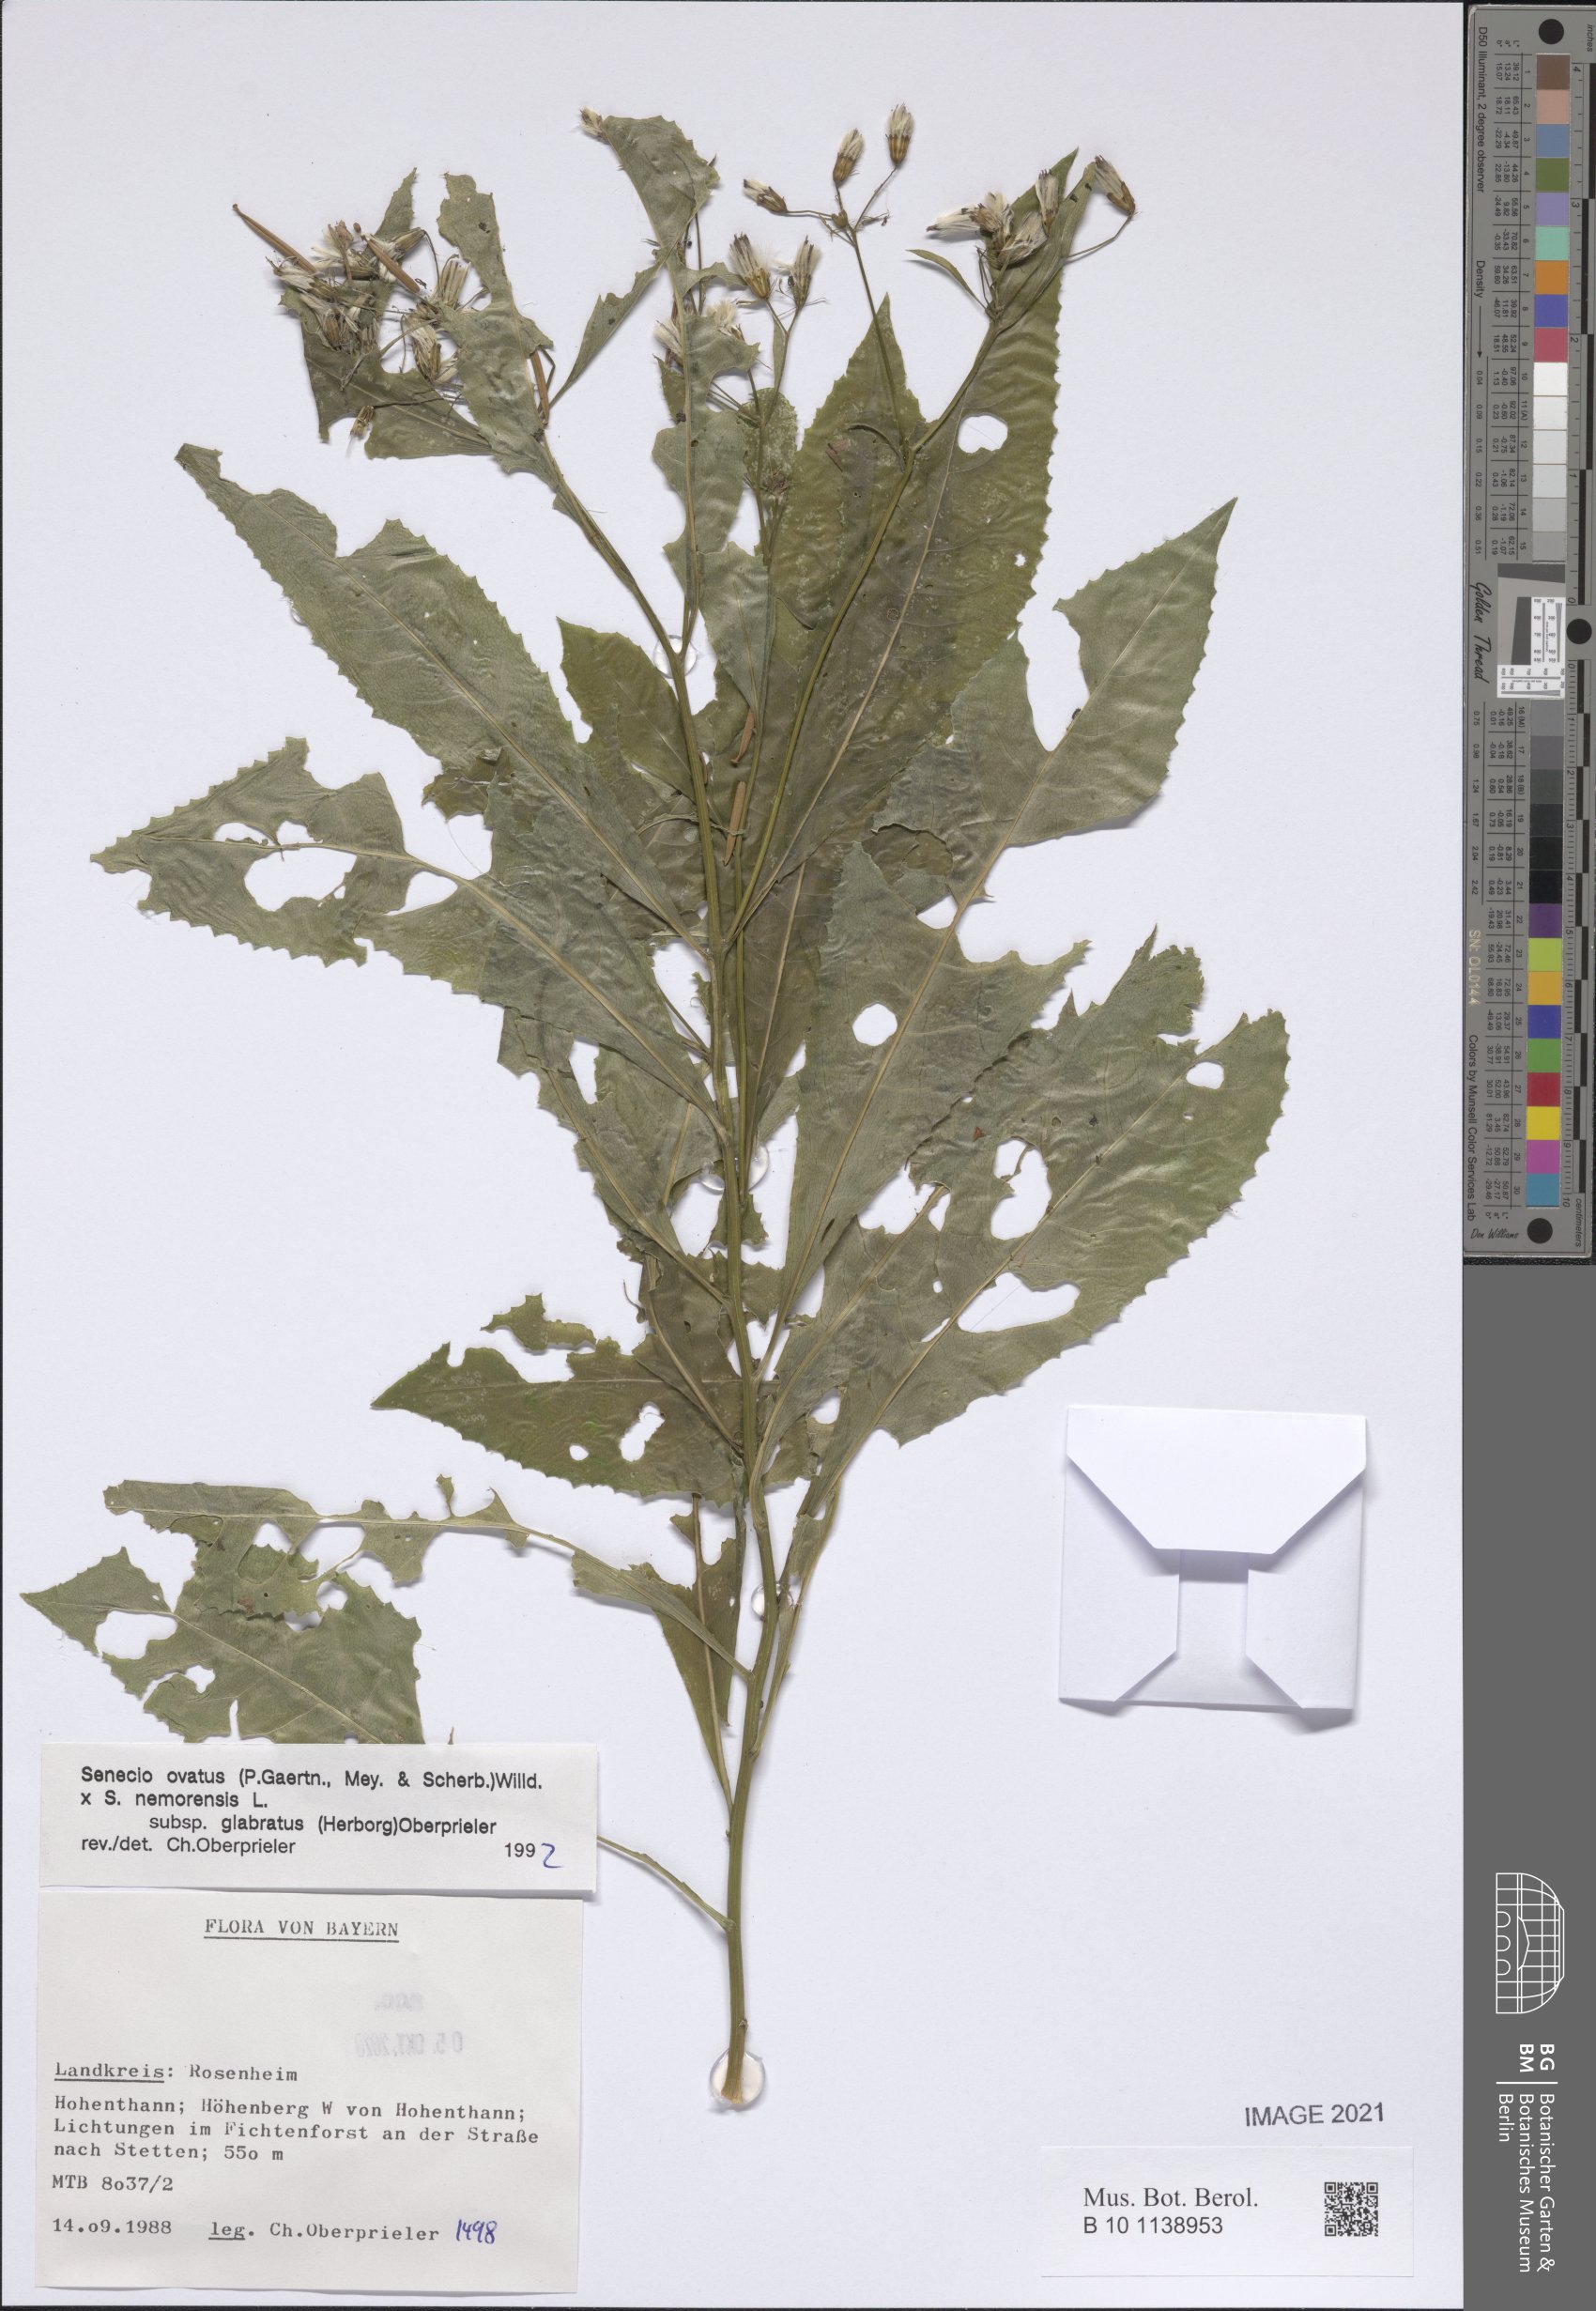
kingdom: Plantae
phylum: Tracheophyta
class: Magnoliopsida
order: Asterales
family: Asteraceae
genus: Senecio
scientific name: Senecio ovatus
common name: Wood ragwort
